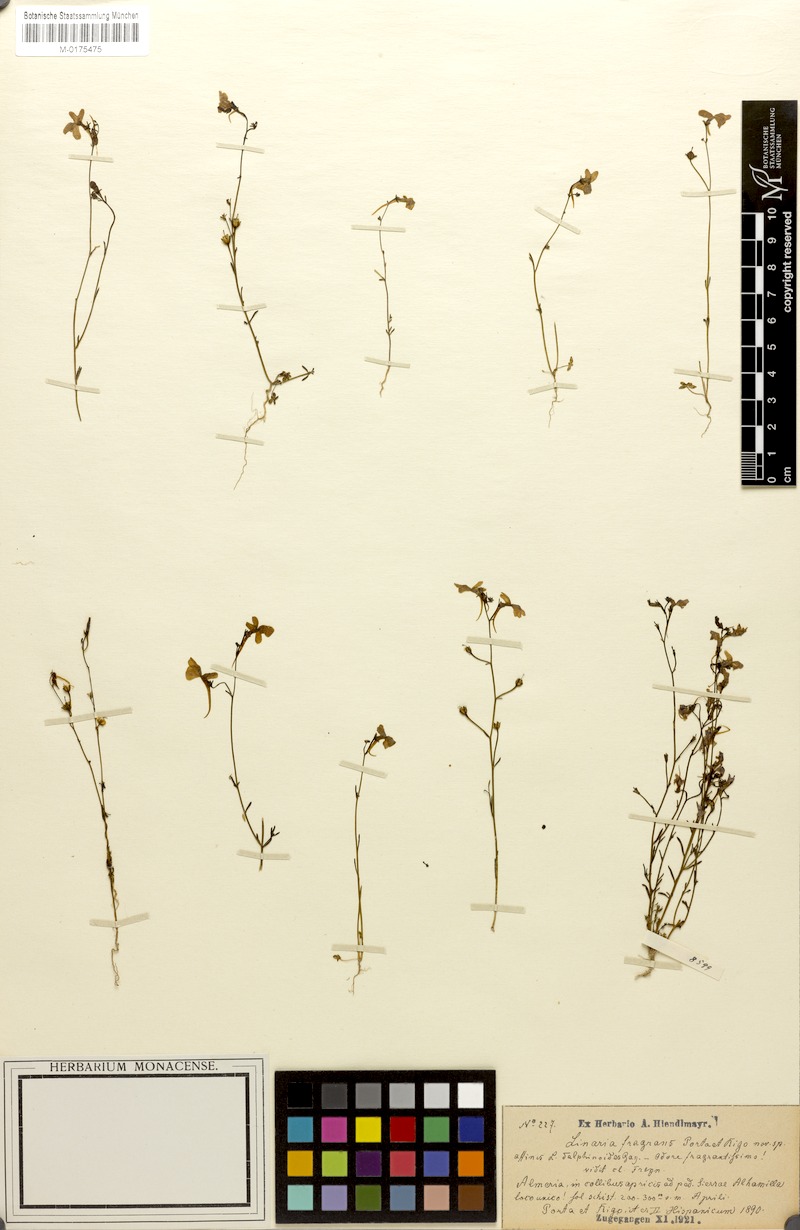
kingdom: Plantae
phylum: Tracheophyta
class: Magnoliopsida
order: Lamiales
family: Plantaginaceae
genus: Linaria
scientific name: Linaria nigricans
